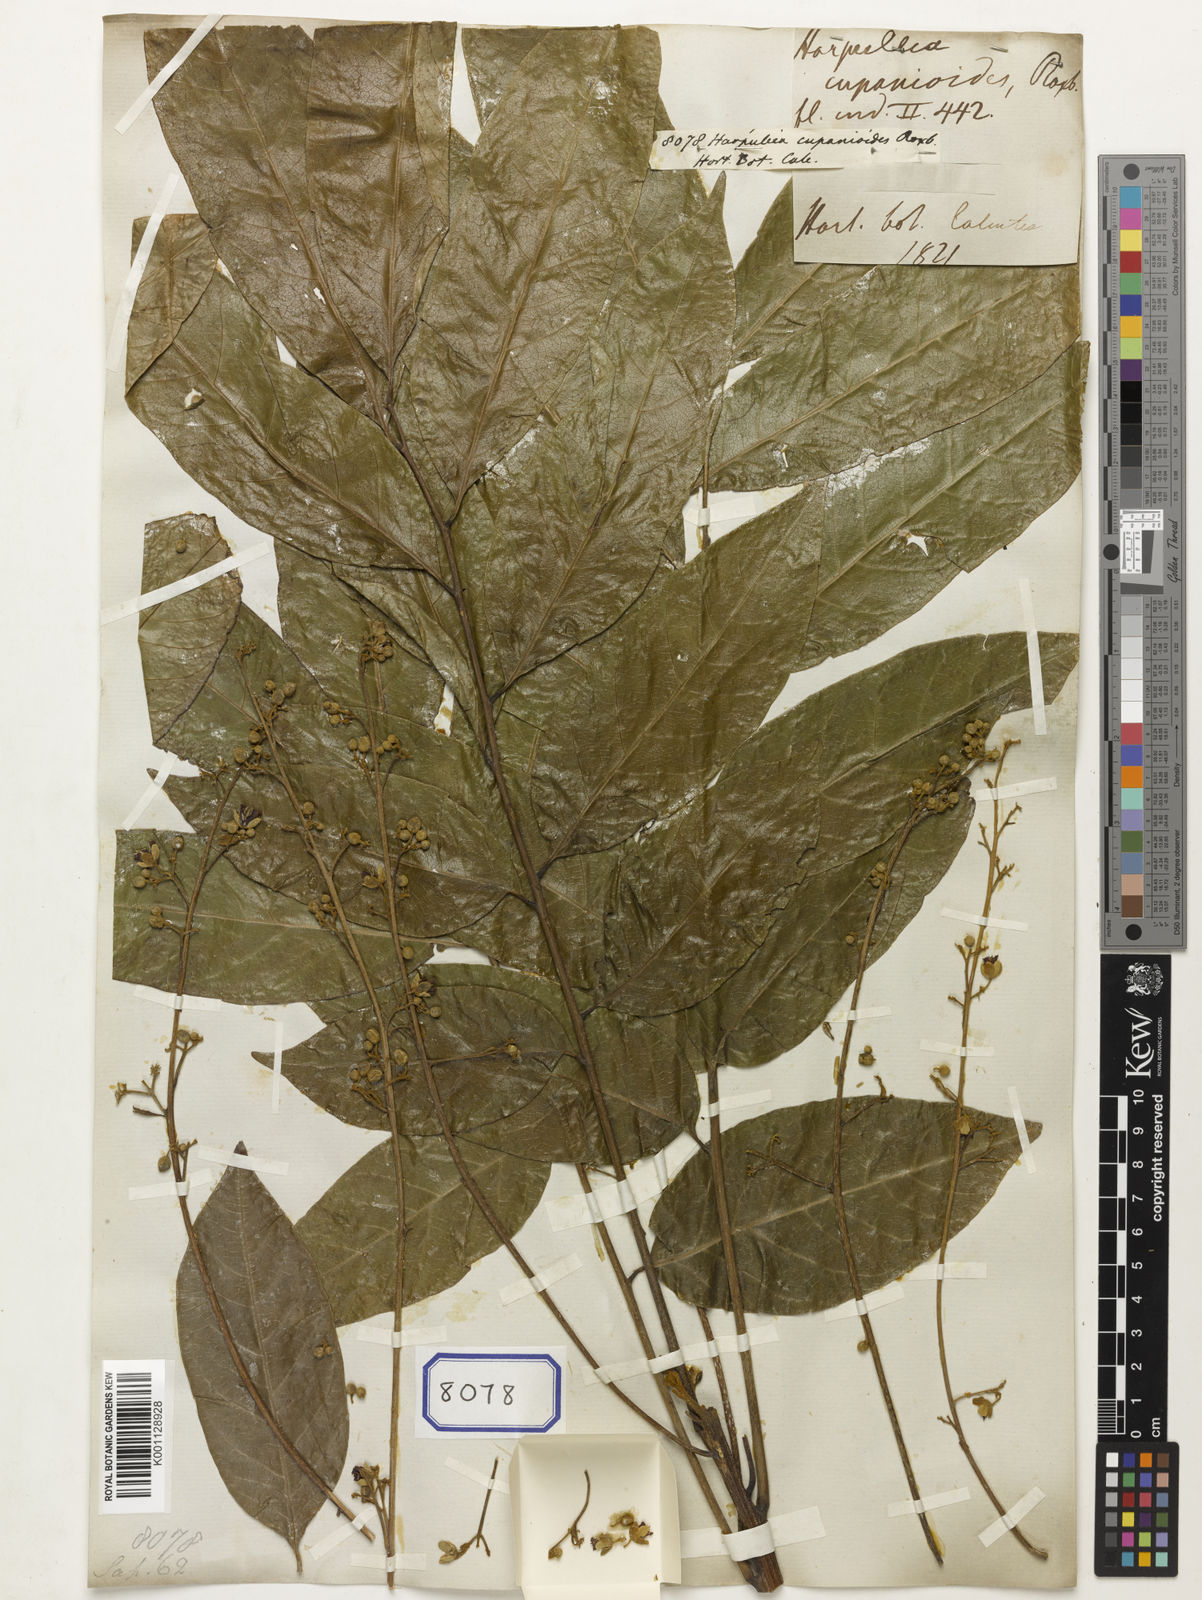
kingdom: Plantae
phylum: Tracheophyta
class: Magnoliopsida
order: Sapindales
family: Sapindaceae
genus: Harpullia
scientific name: Harpullia cupanioides
